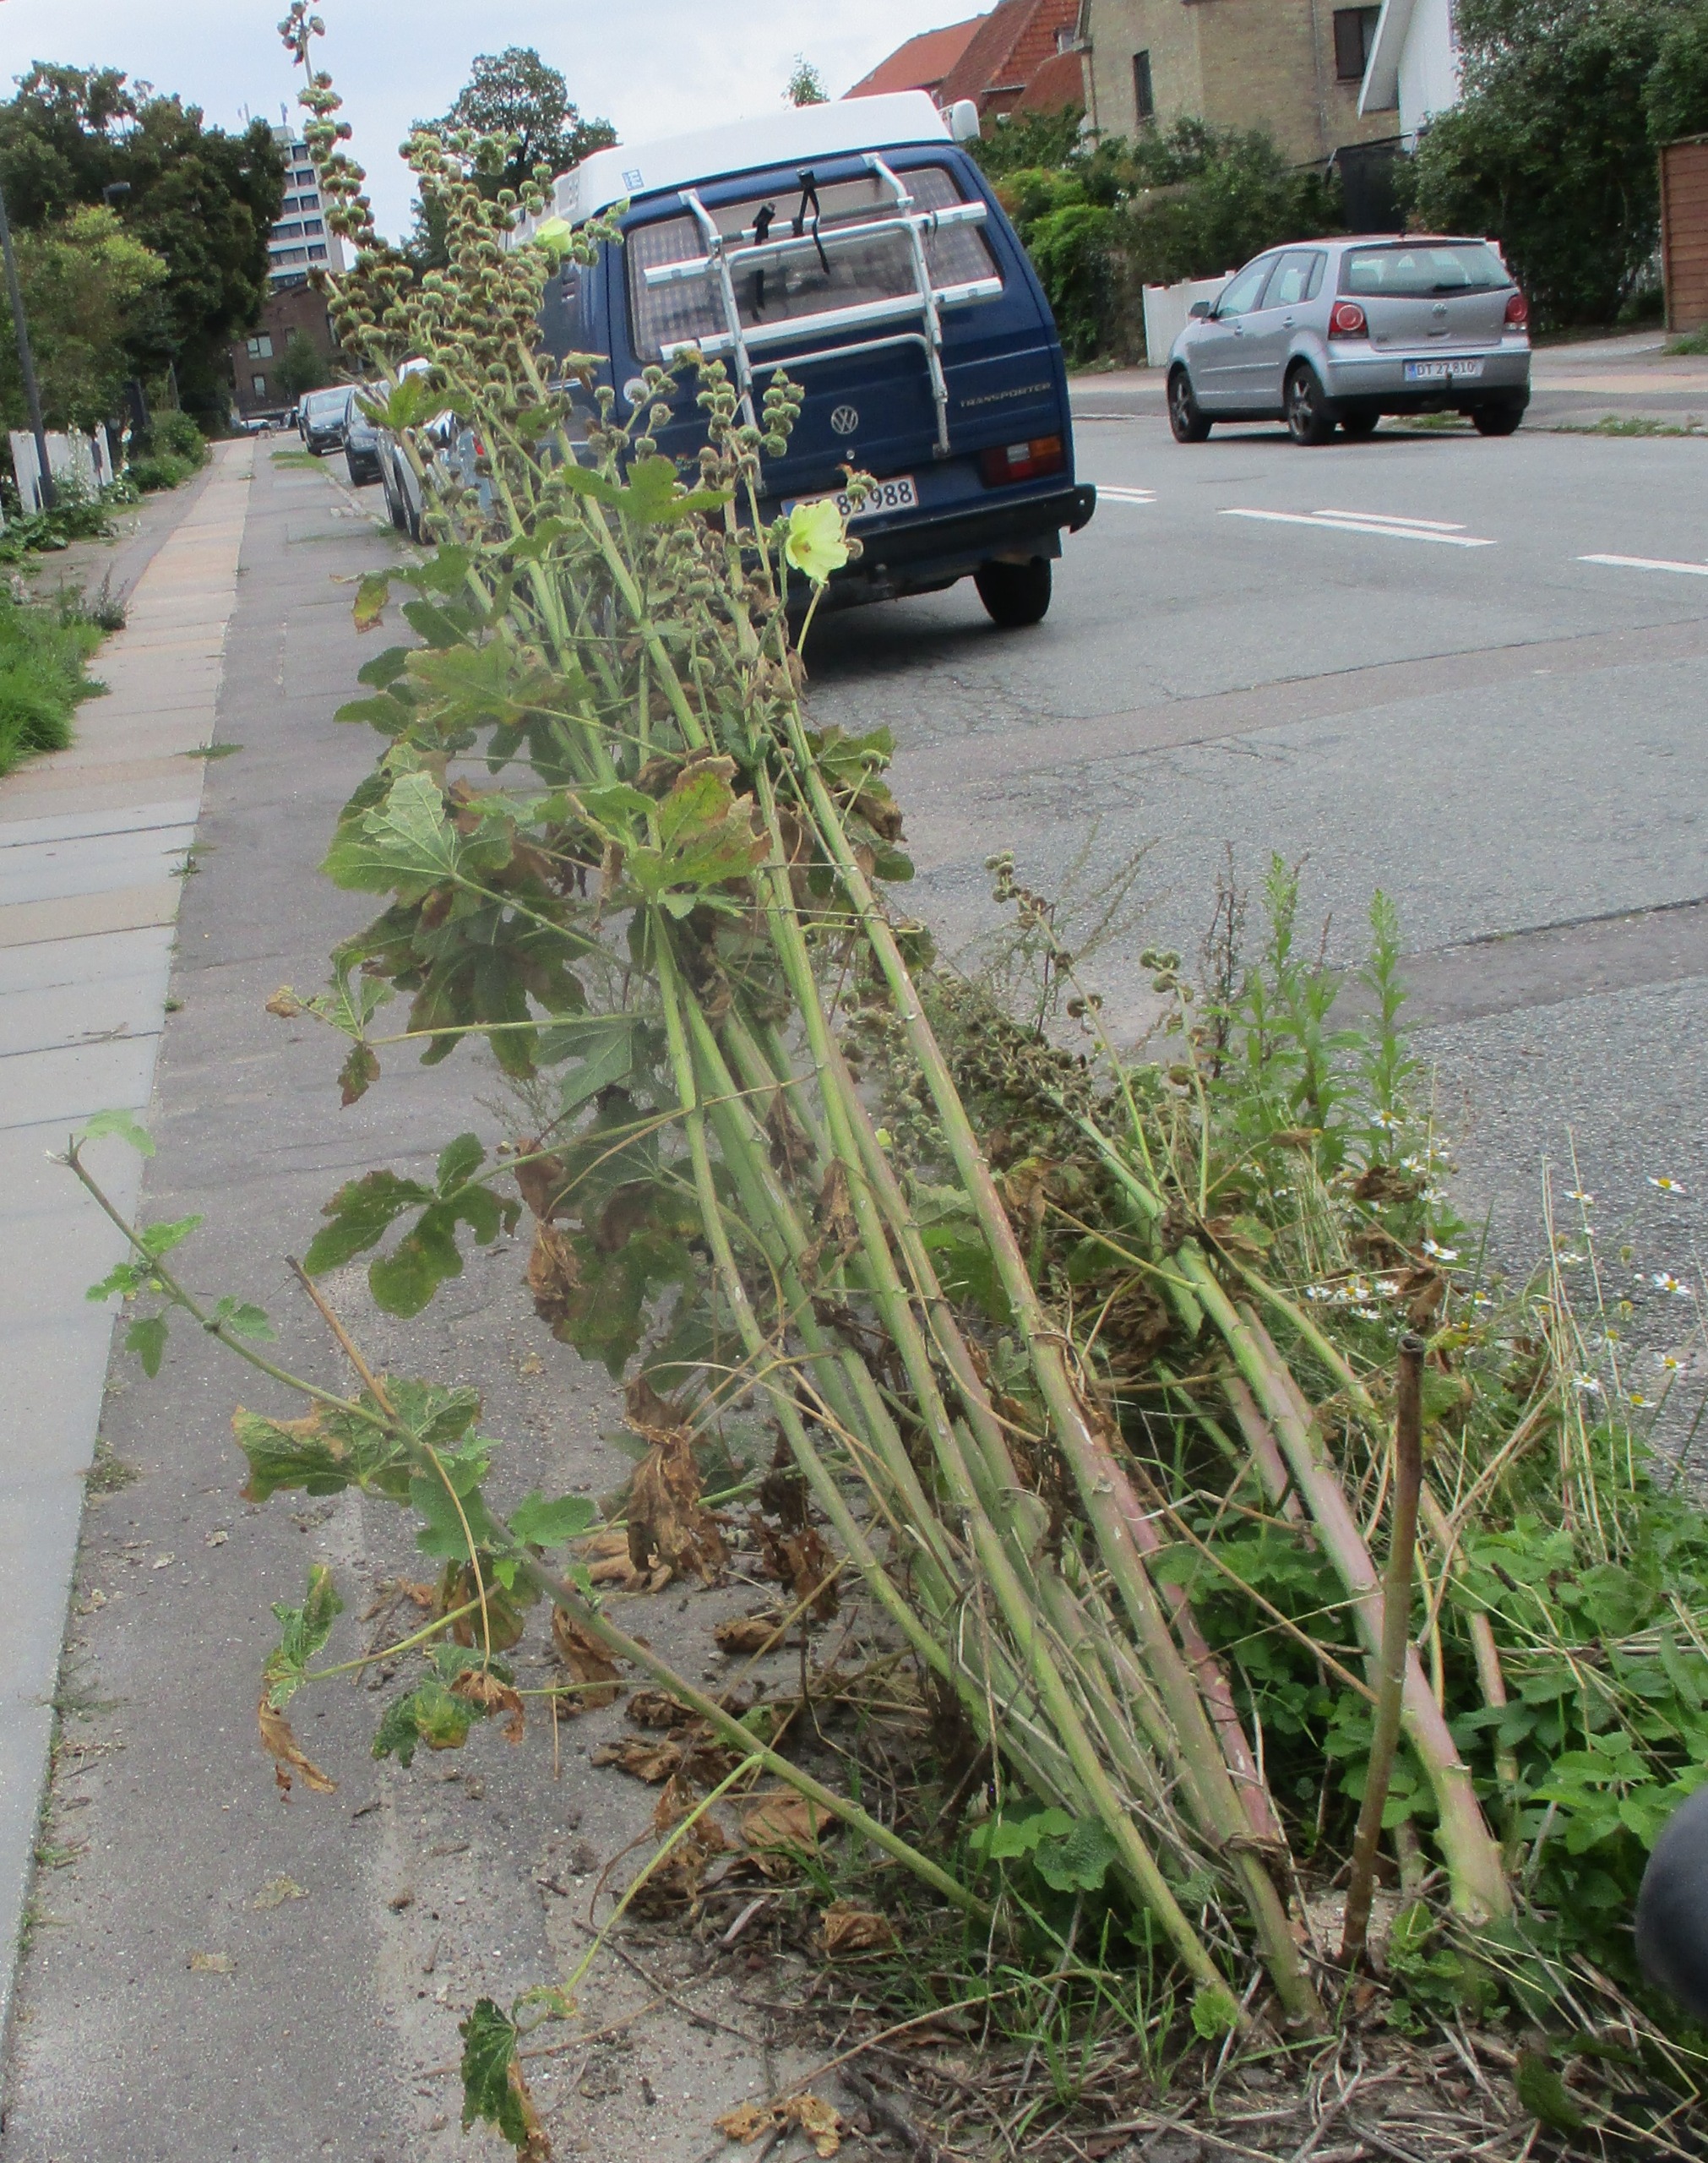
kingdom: Plantae
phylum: Tracheophyta
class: Magnoliopsida
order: Malvales
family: Malvaceae
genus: Alcea
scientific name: Alcea rosea
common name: Have-stokrose
